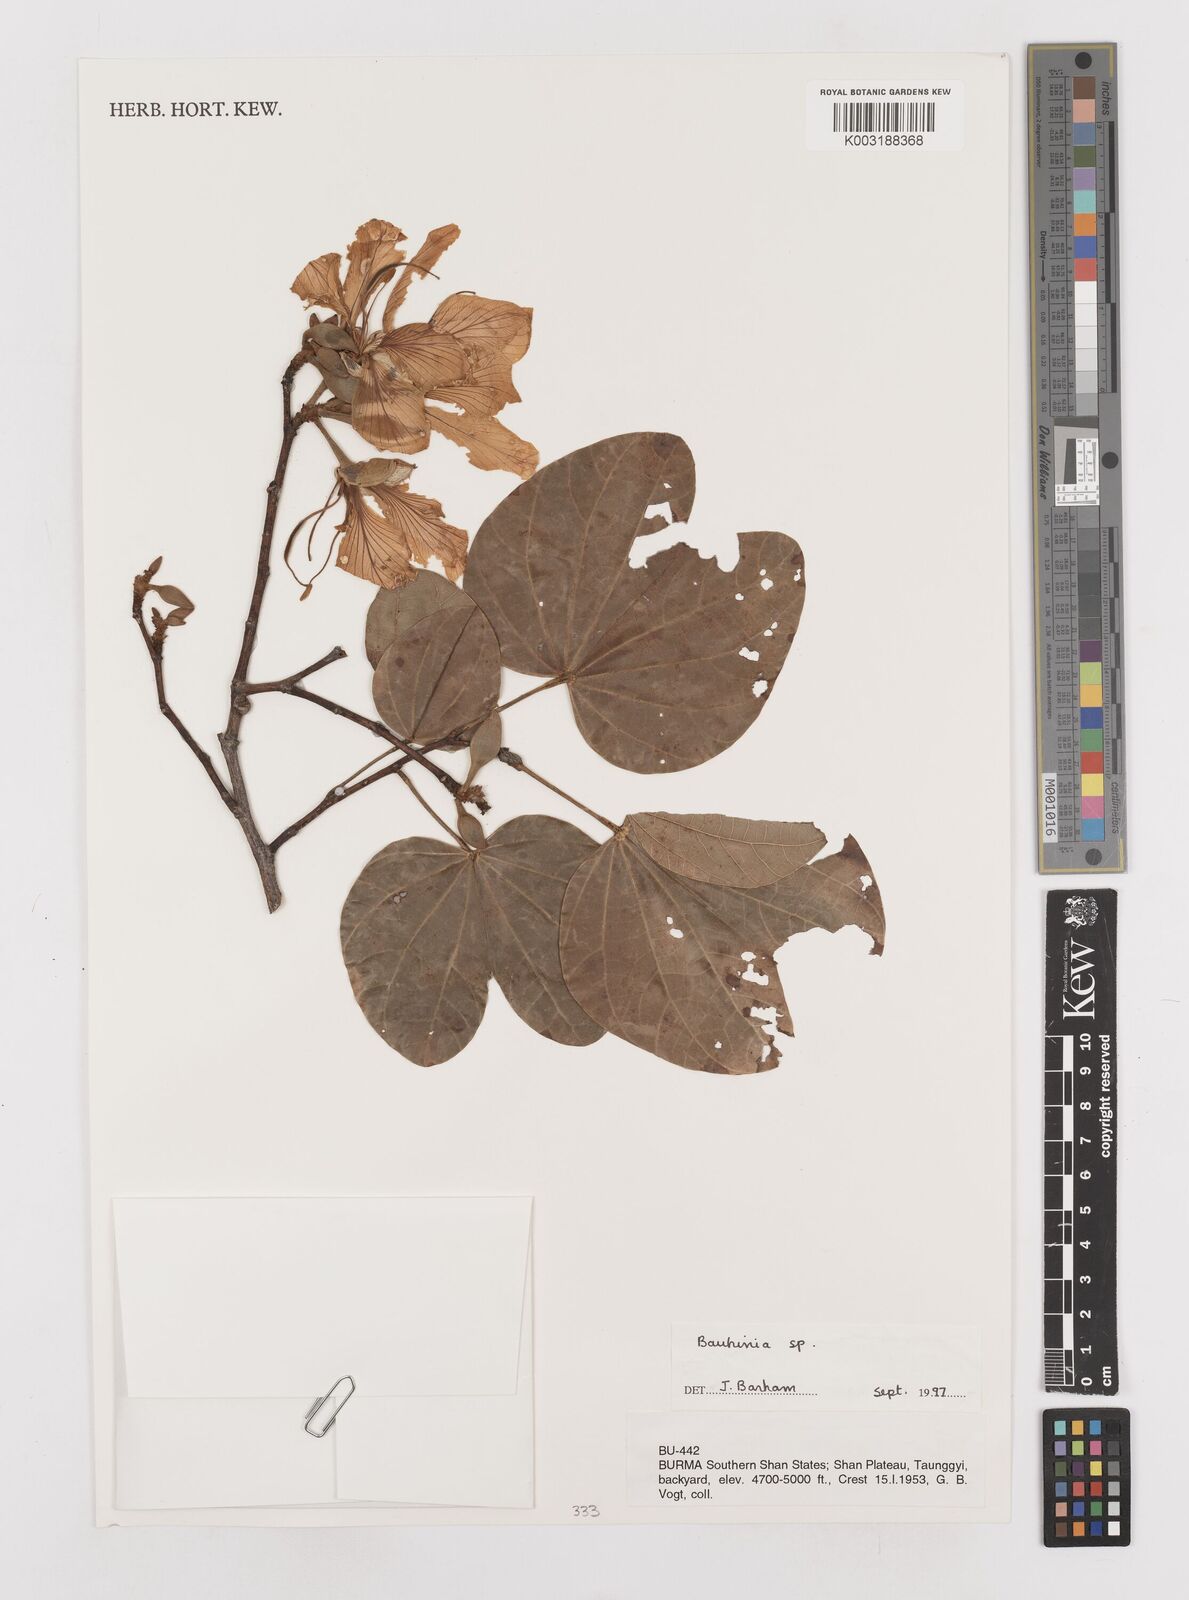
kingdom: Plantae
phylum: Tracheophyta
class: Magnoliopsida
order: Fabales
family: Fabaceae
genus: Bauhinia
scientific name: Bauhinia
